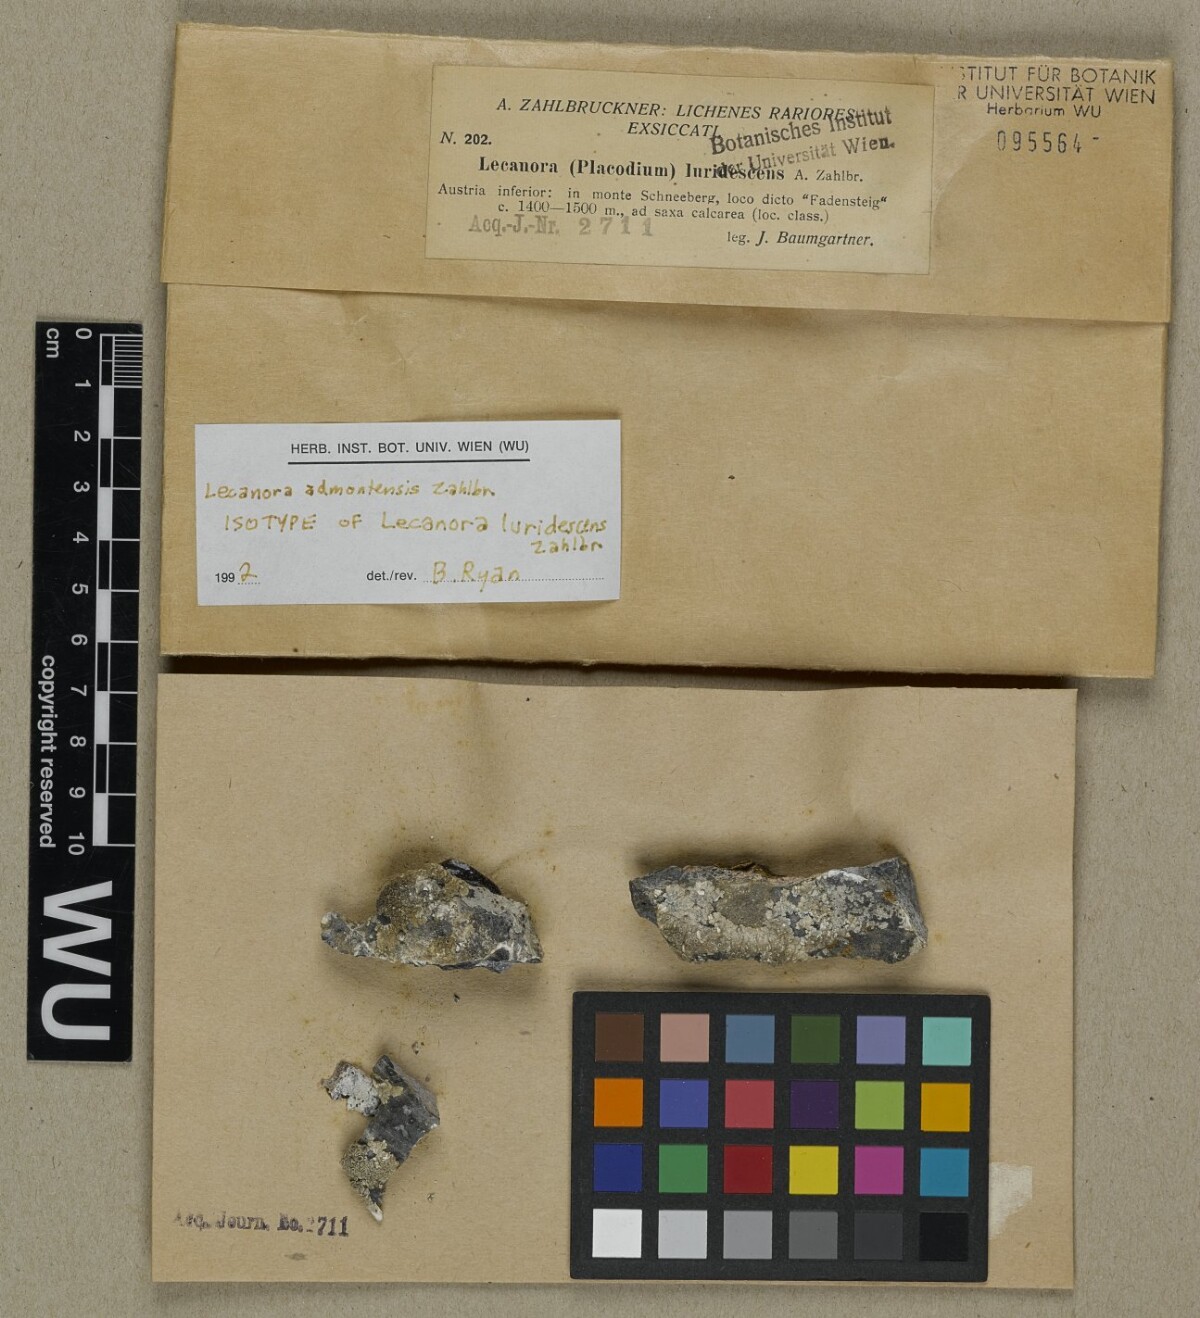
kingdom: Fungi
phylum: Ascomycota
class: Lecanoromycetes
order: Lecanorales
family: Lecanoraceae
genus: Protoparmeliopsis
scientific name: Protoparmeliopsis admontensis
